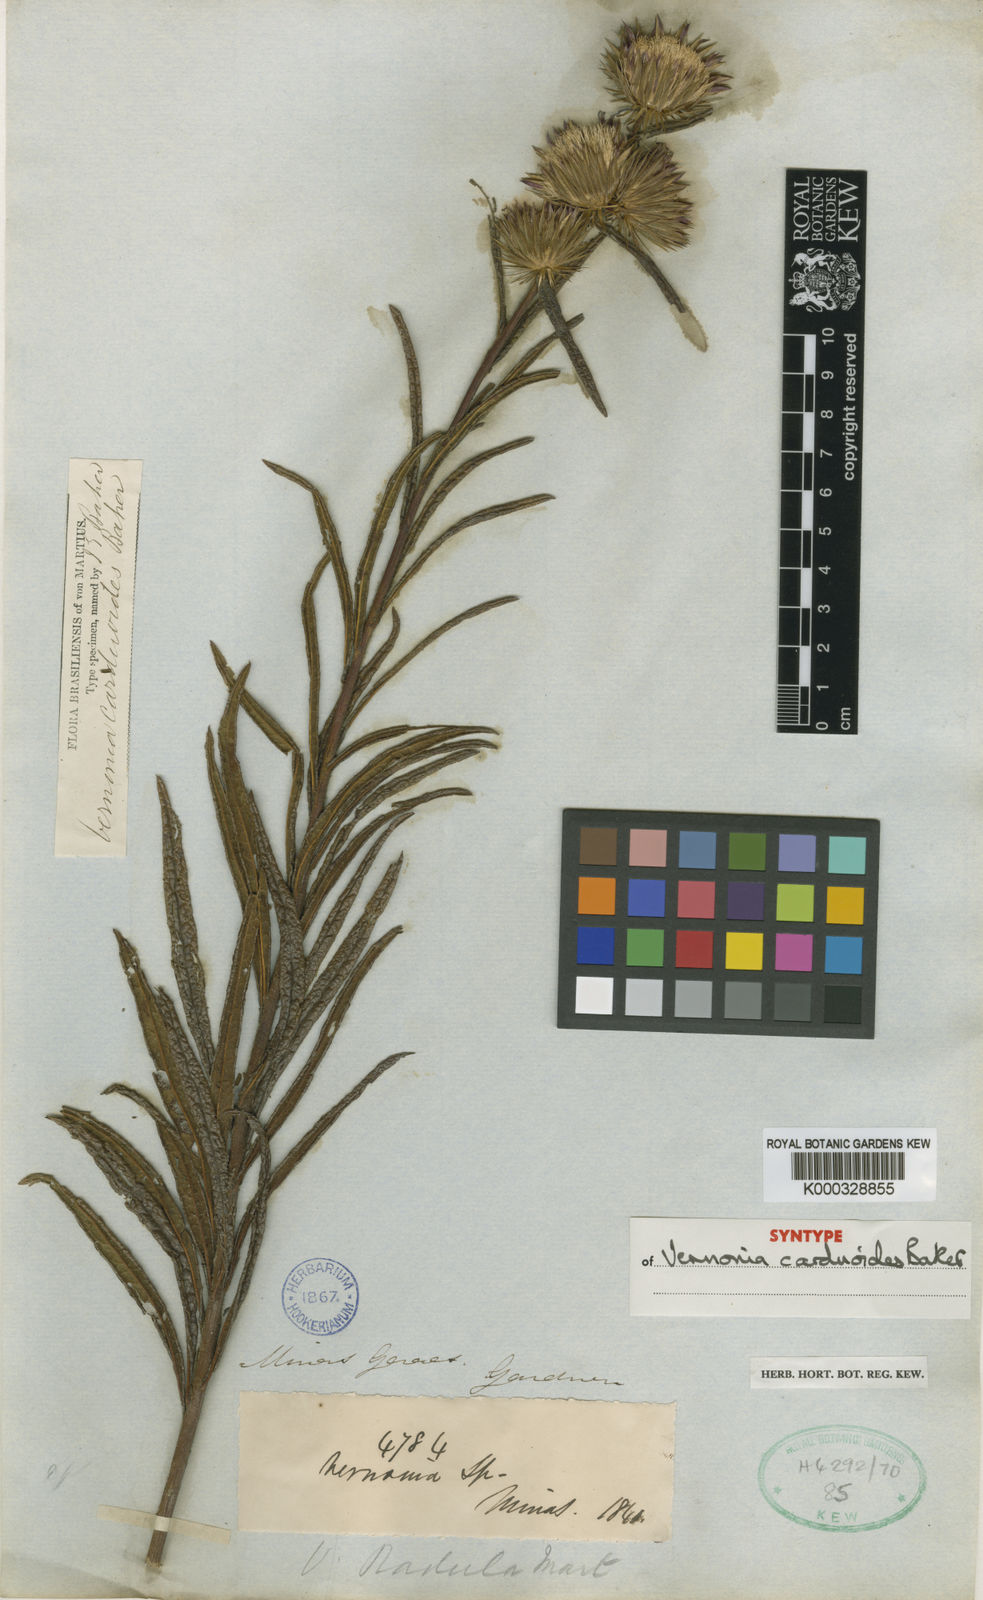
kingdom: Plantae
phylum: Tracheophyta
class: Magnoliopsida
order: Asterales
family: Asteraceae
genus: Lessingianthus
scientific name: Lessingianthus carduoides
